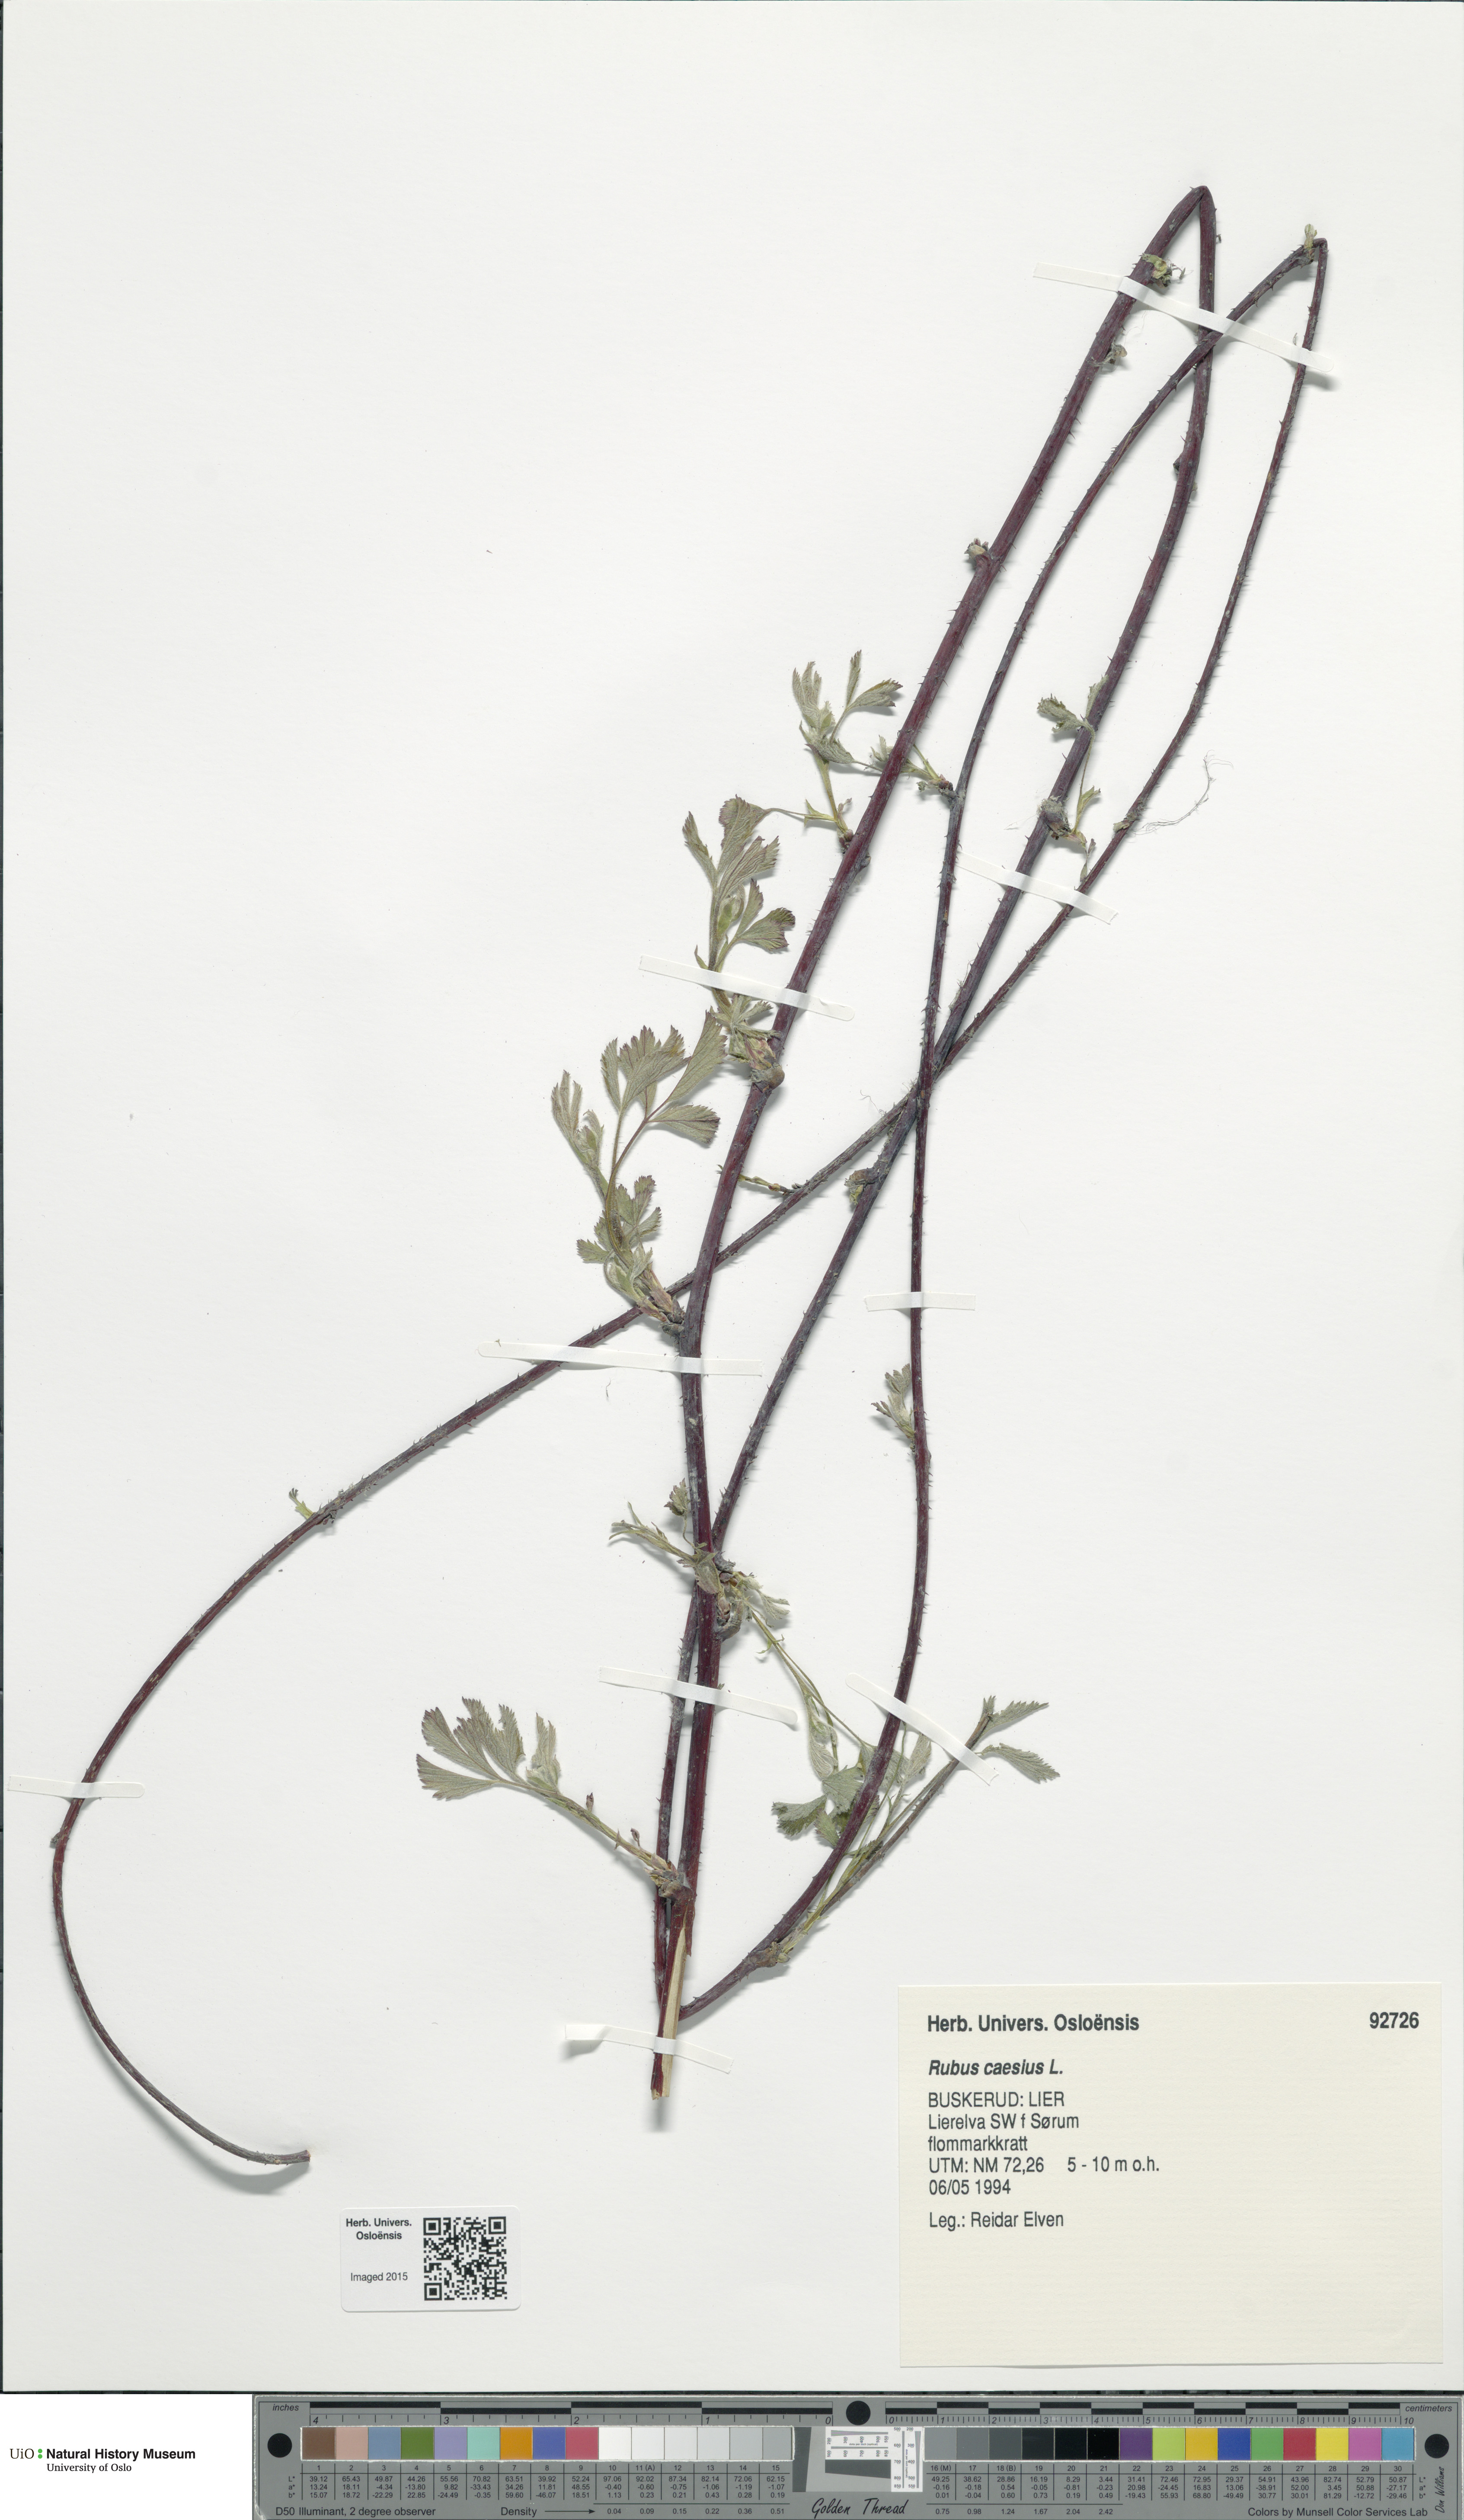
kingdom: Plantae
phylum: Tracheophyta
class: Magnoliopsida
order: Rosales
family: Rosaceae
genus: Rubus
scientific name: Rubus caesius
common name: Dewberry
